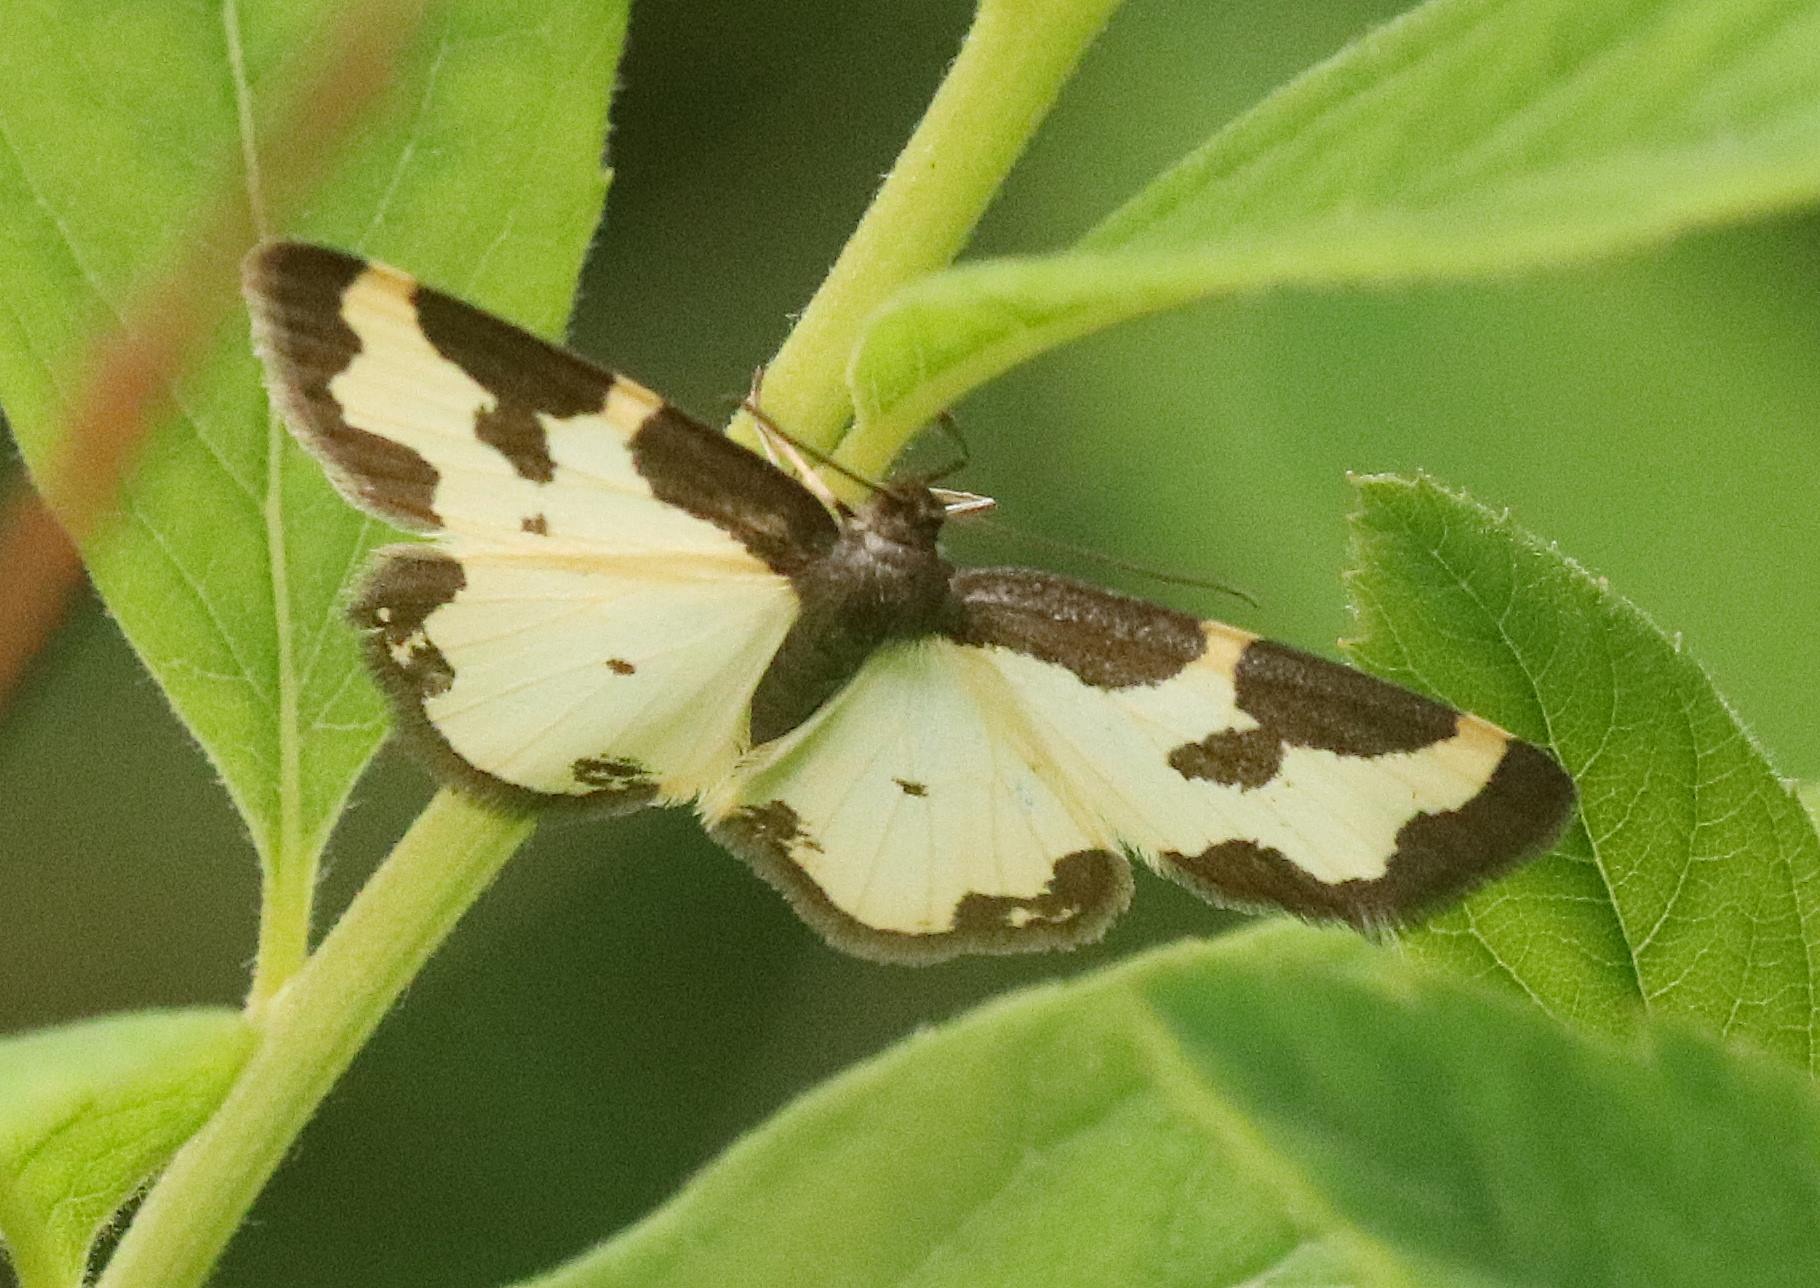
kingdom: Animalia
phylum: Arthropoda
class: Insecta
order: Lepidoptera
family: Geometridae
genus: Lomaspilis
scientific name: Lomaspilis marginata
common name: Sortrandet måler
